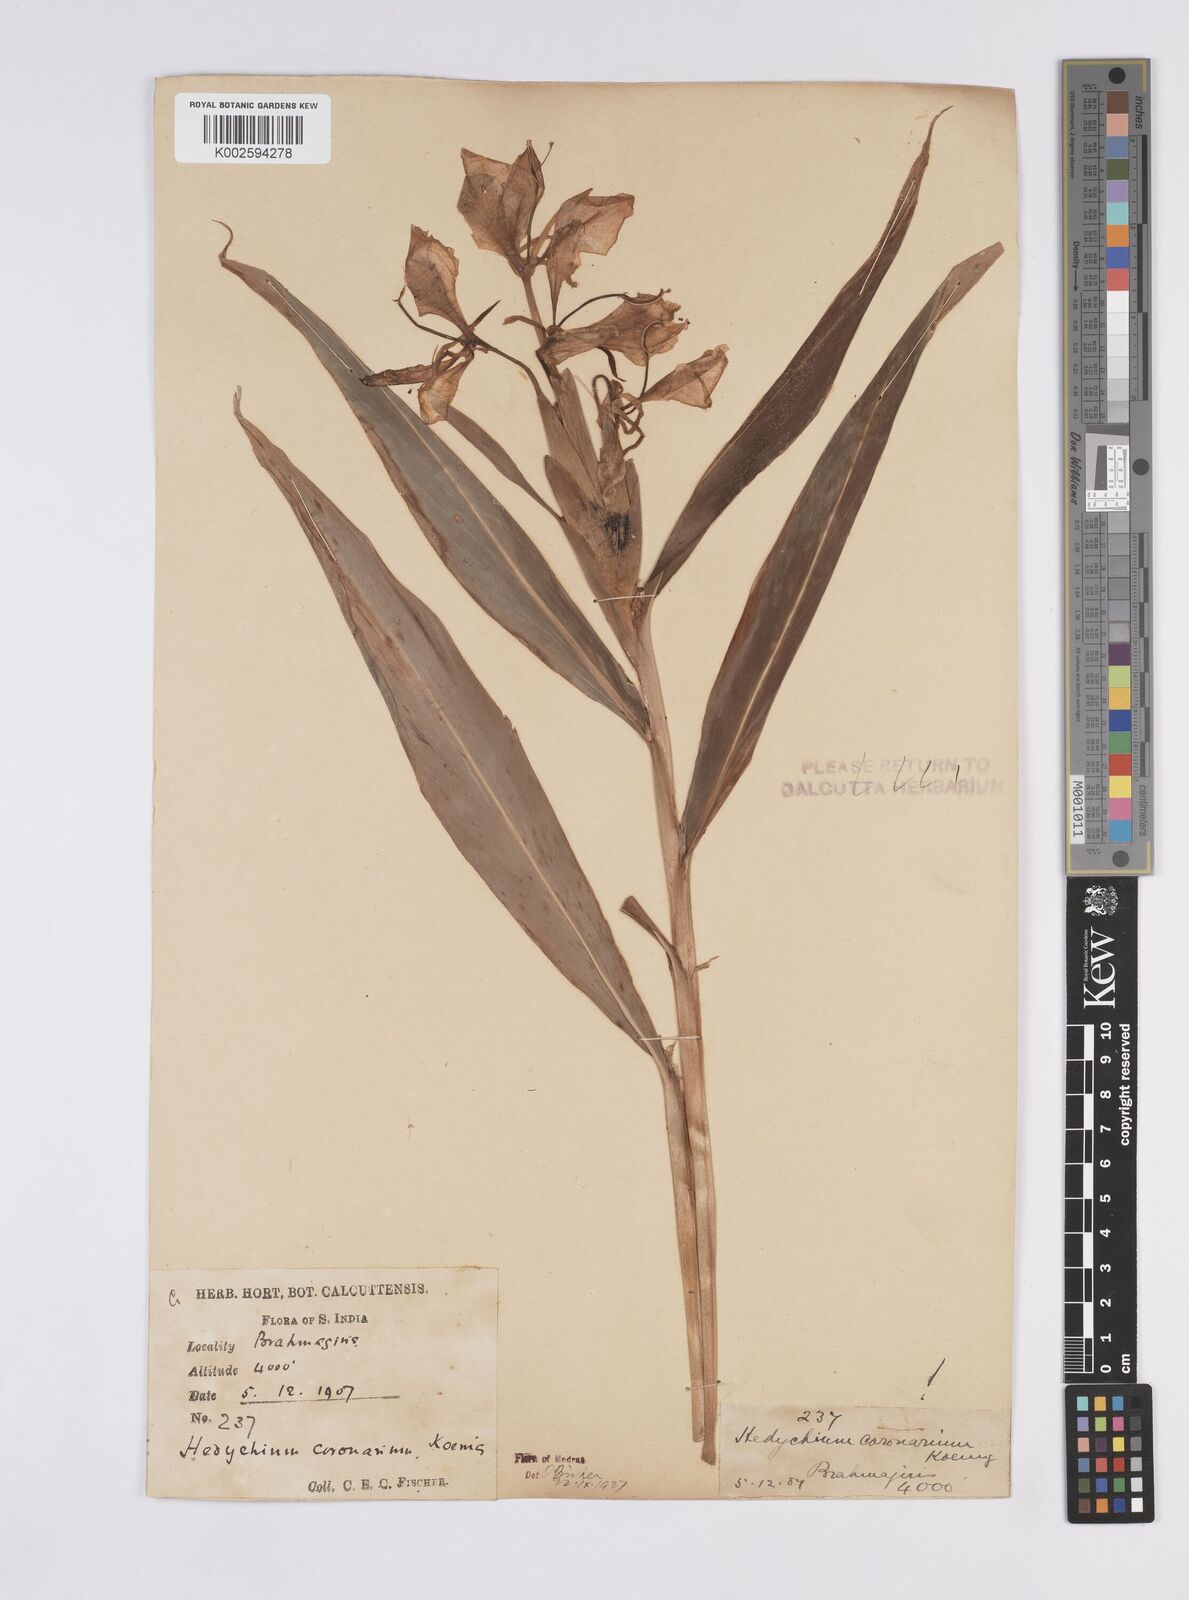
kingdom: Plantae
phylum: Tracheophyta
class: Liliopsida
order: Zingiberales
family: Zingiberaceae
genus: Hedychium
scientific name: Hedychium coronarium
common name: White garland-lily
